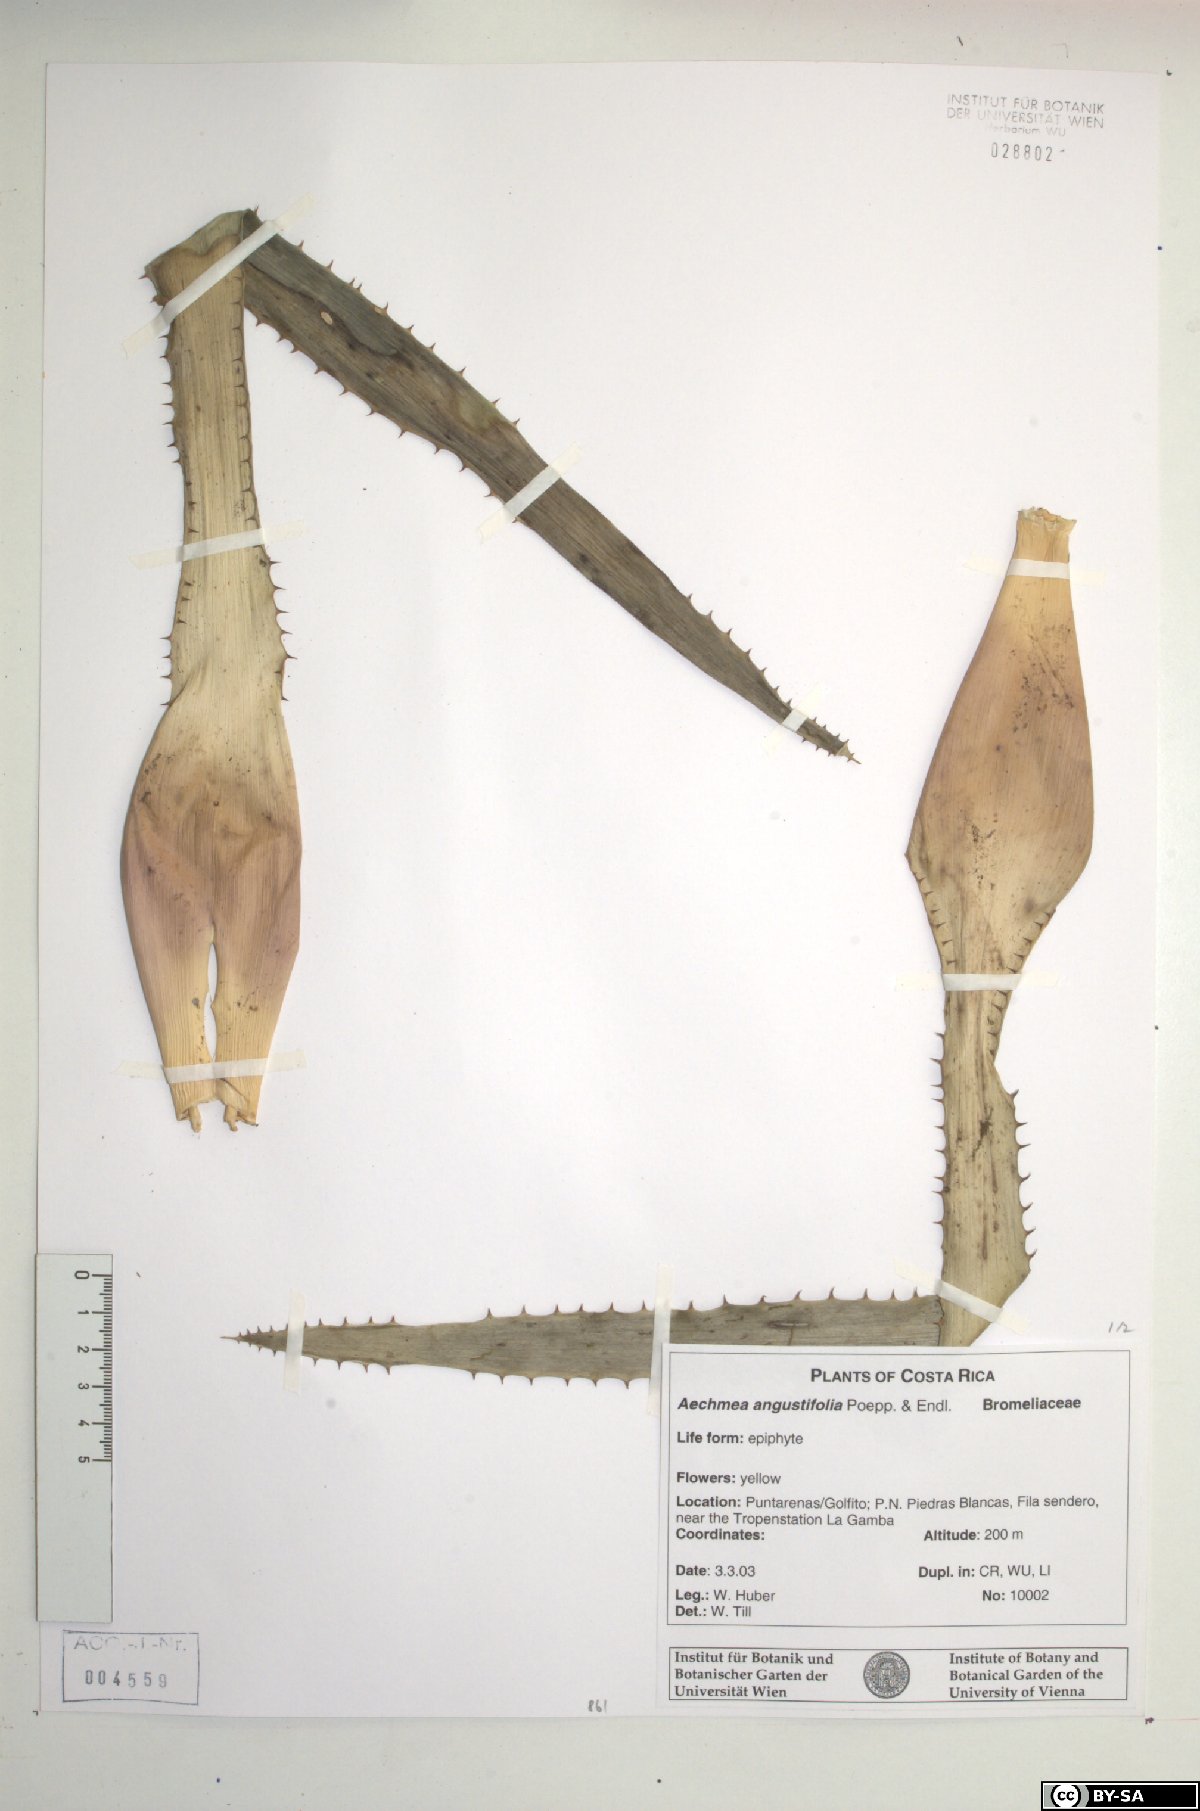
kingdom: Plantae
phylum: Tracheophyta
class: Liliopsida
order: Poales
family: Bromeliaceae
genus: Aechmea
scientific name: Aechmea angustifolia
